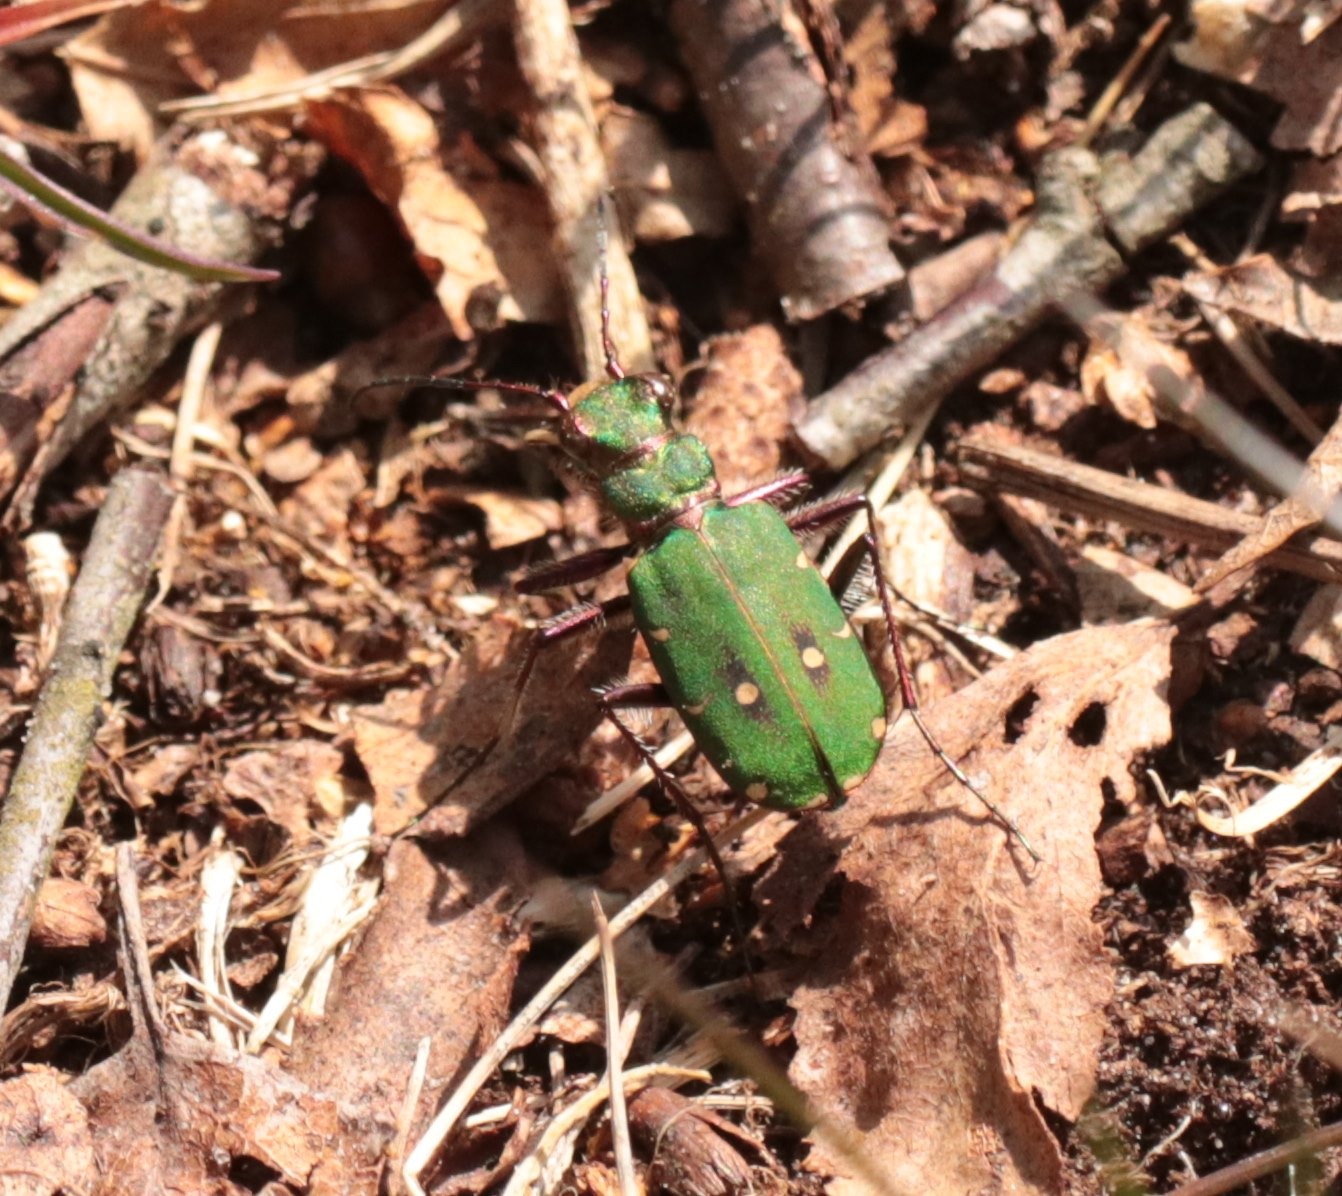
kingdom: Animalia
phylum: Arthropoda
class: Insecta
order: Coleoptera
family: Carabidae
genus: Cicindela
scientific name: Cicindela campestris
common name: Grøn sandspringer
